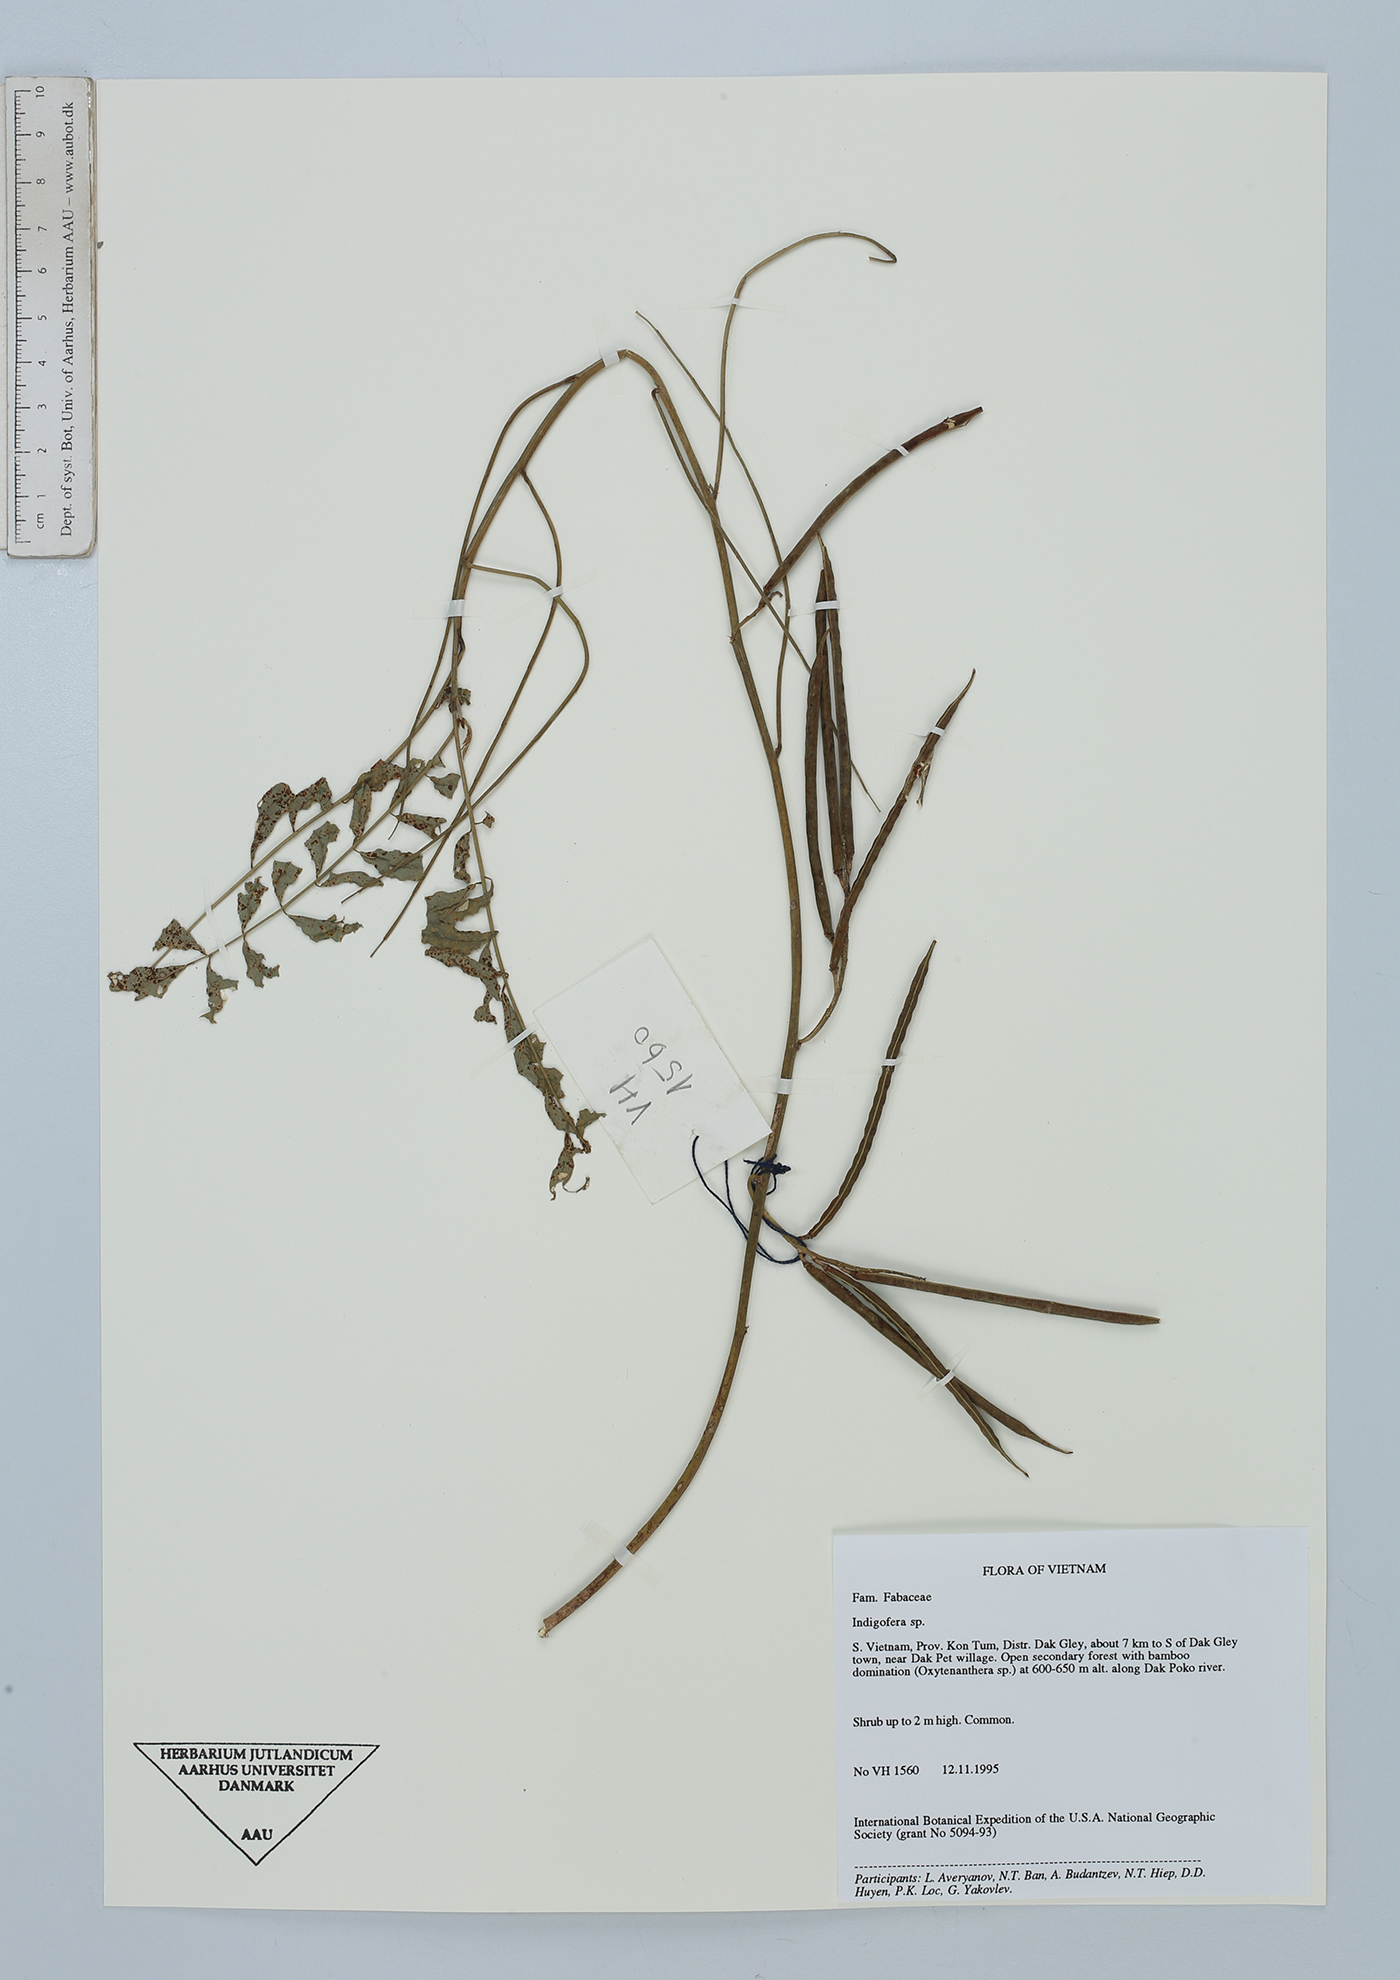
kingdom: Plantae
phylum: Tracheophyta
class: Magnoliopsida
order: Fabales
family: Fabaceae
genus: Indigofera
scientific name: Indigofera
